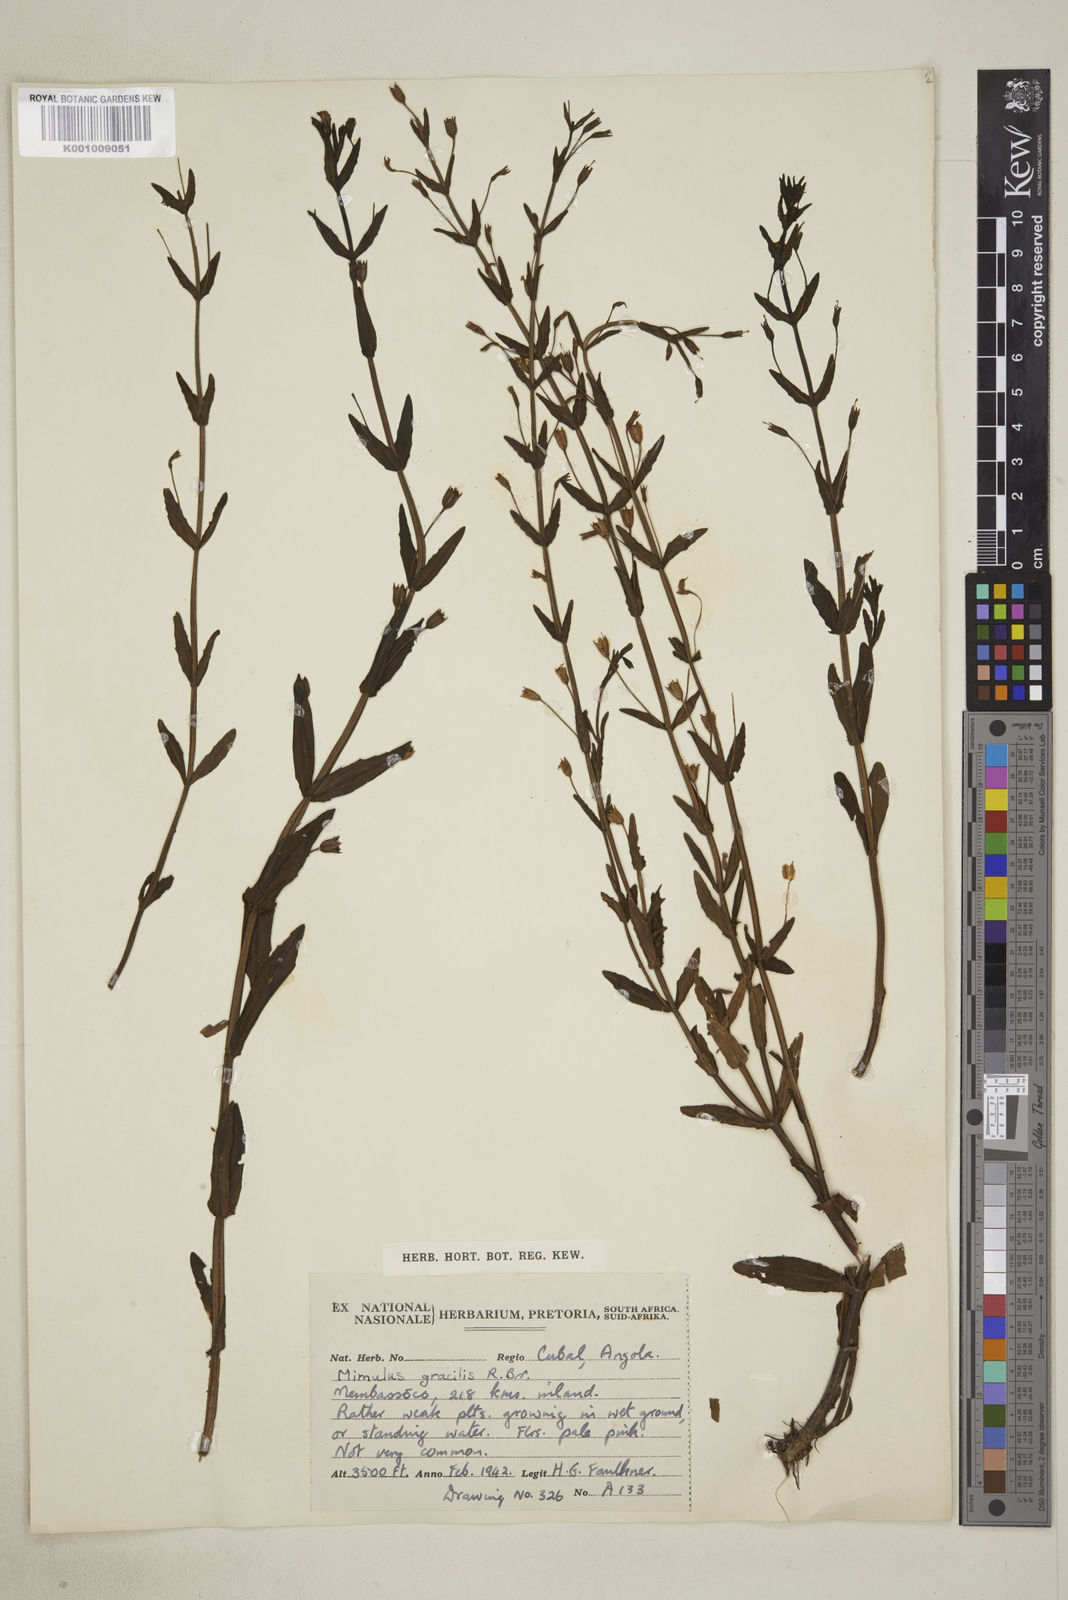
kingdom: Plantae
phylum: Tracheophyta
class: Magnoliopsida
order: Lamiales
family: Phrymaceae
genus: Mimulus
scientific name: Mimulus gracilis
